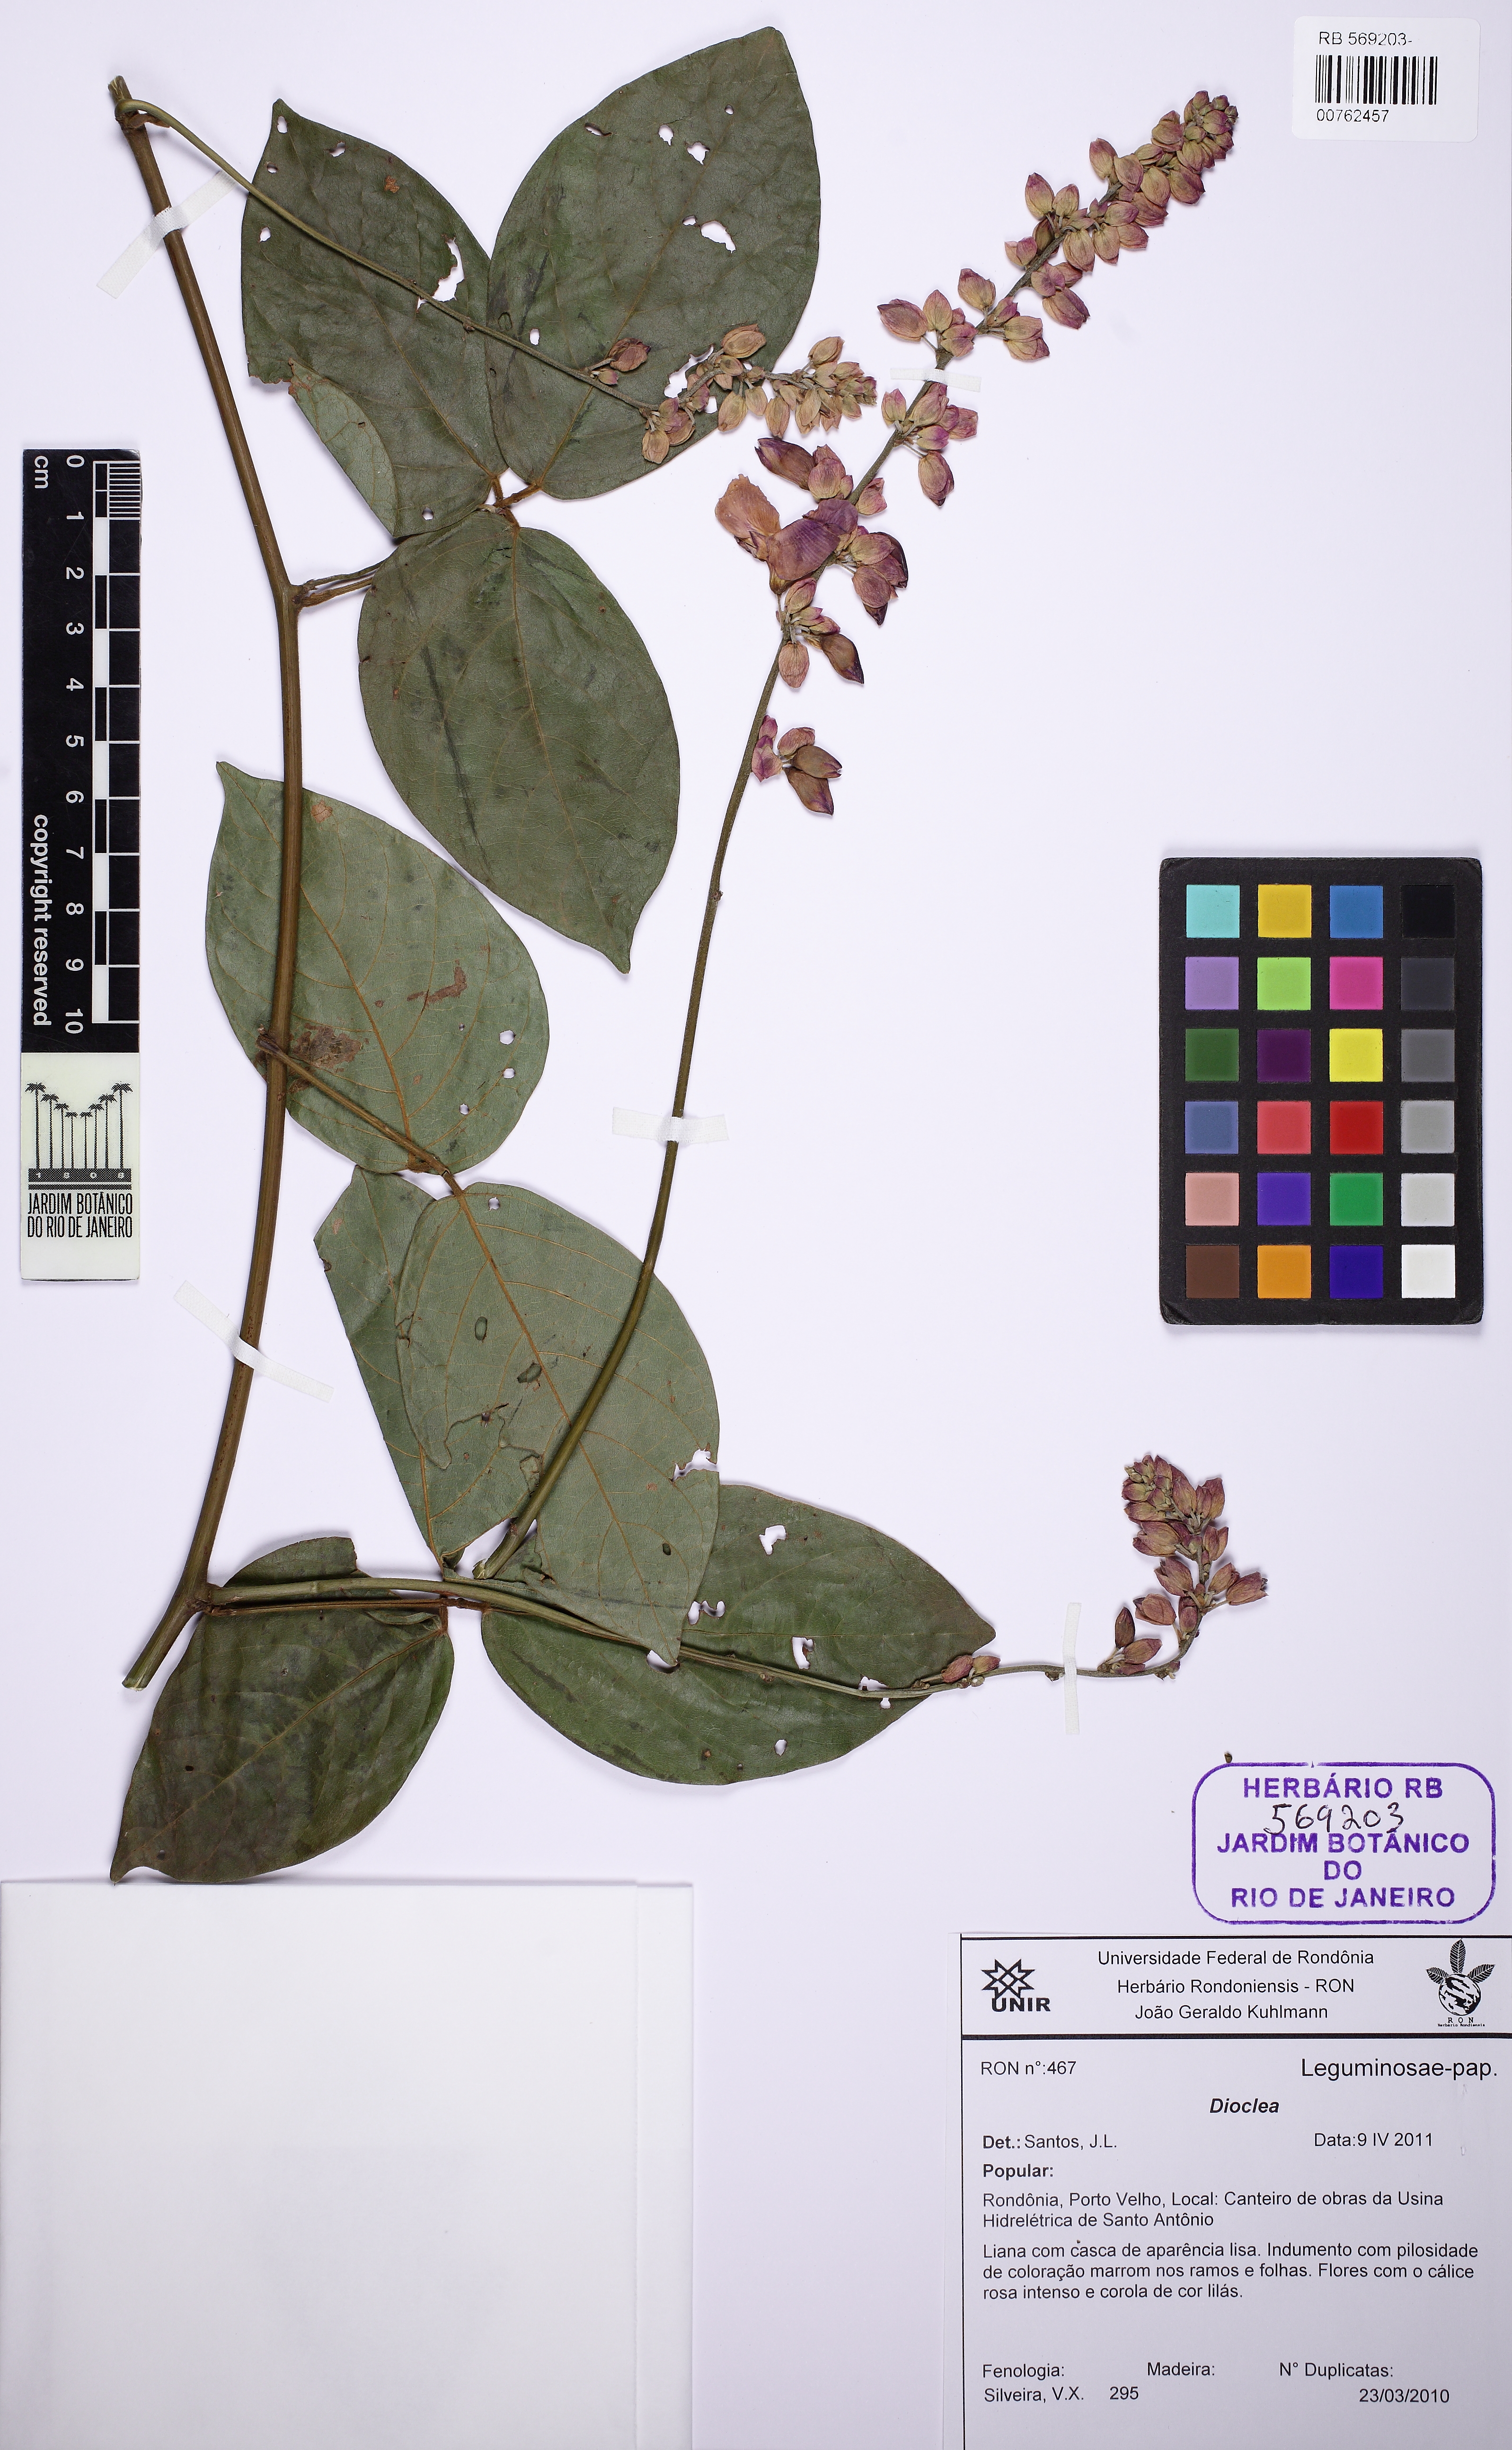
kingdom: Plantae
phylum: Tracheophyta
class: Magnoliopsida
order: Fabales
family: Fabaceae
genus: Dioclea
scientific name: Dioclea virgata
